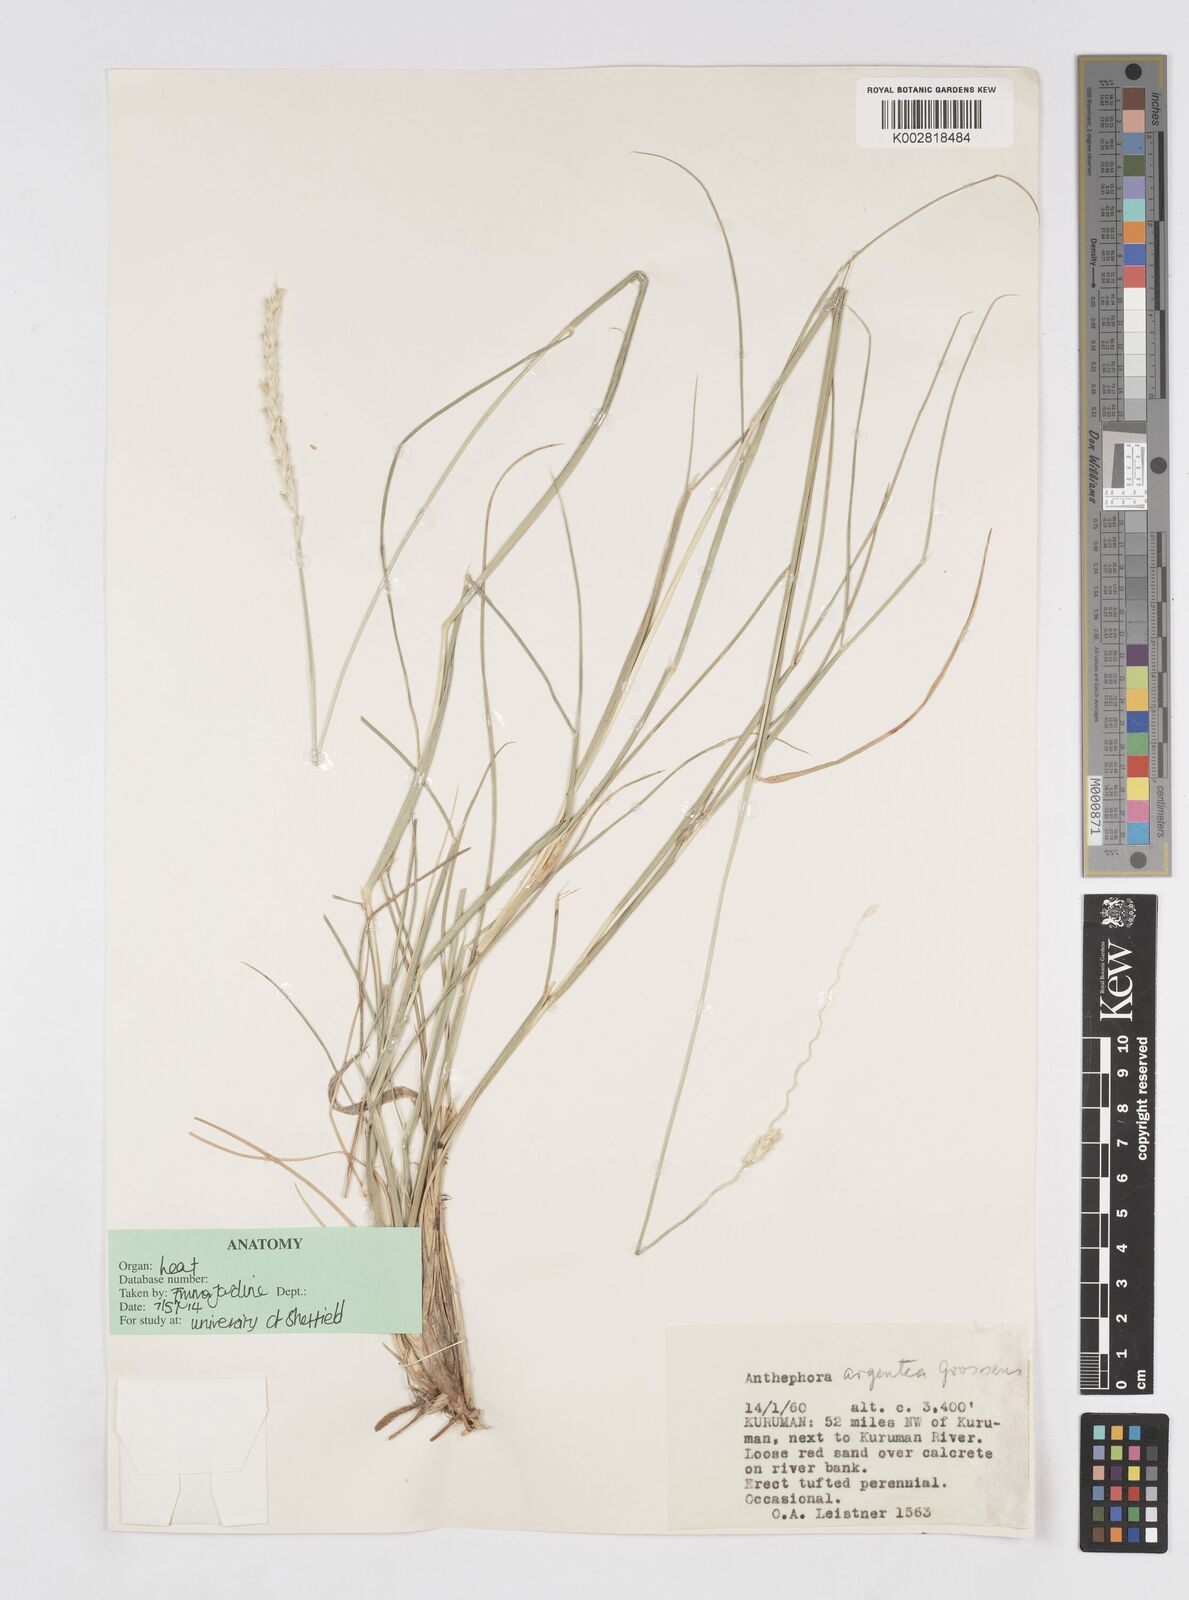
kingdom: Plantae
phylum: Tracheophyta
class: Liliopsida
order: Poales
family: Poaceae
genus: Anthephora
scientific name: Anthephora argentea
